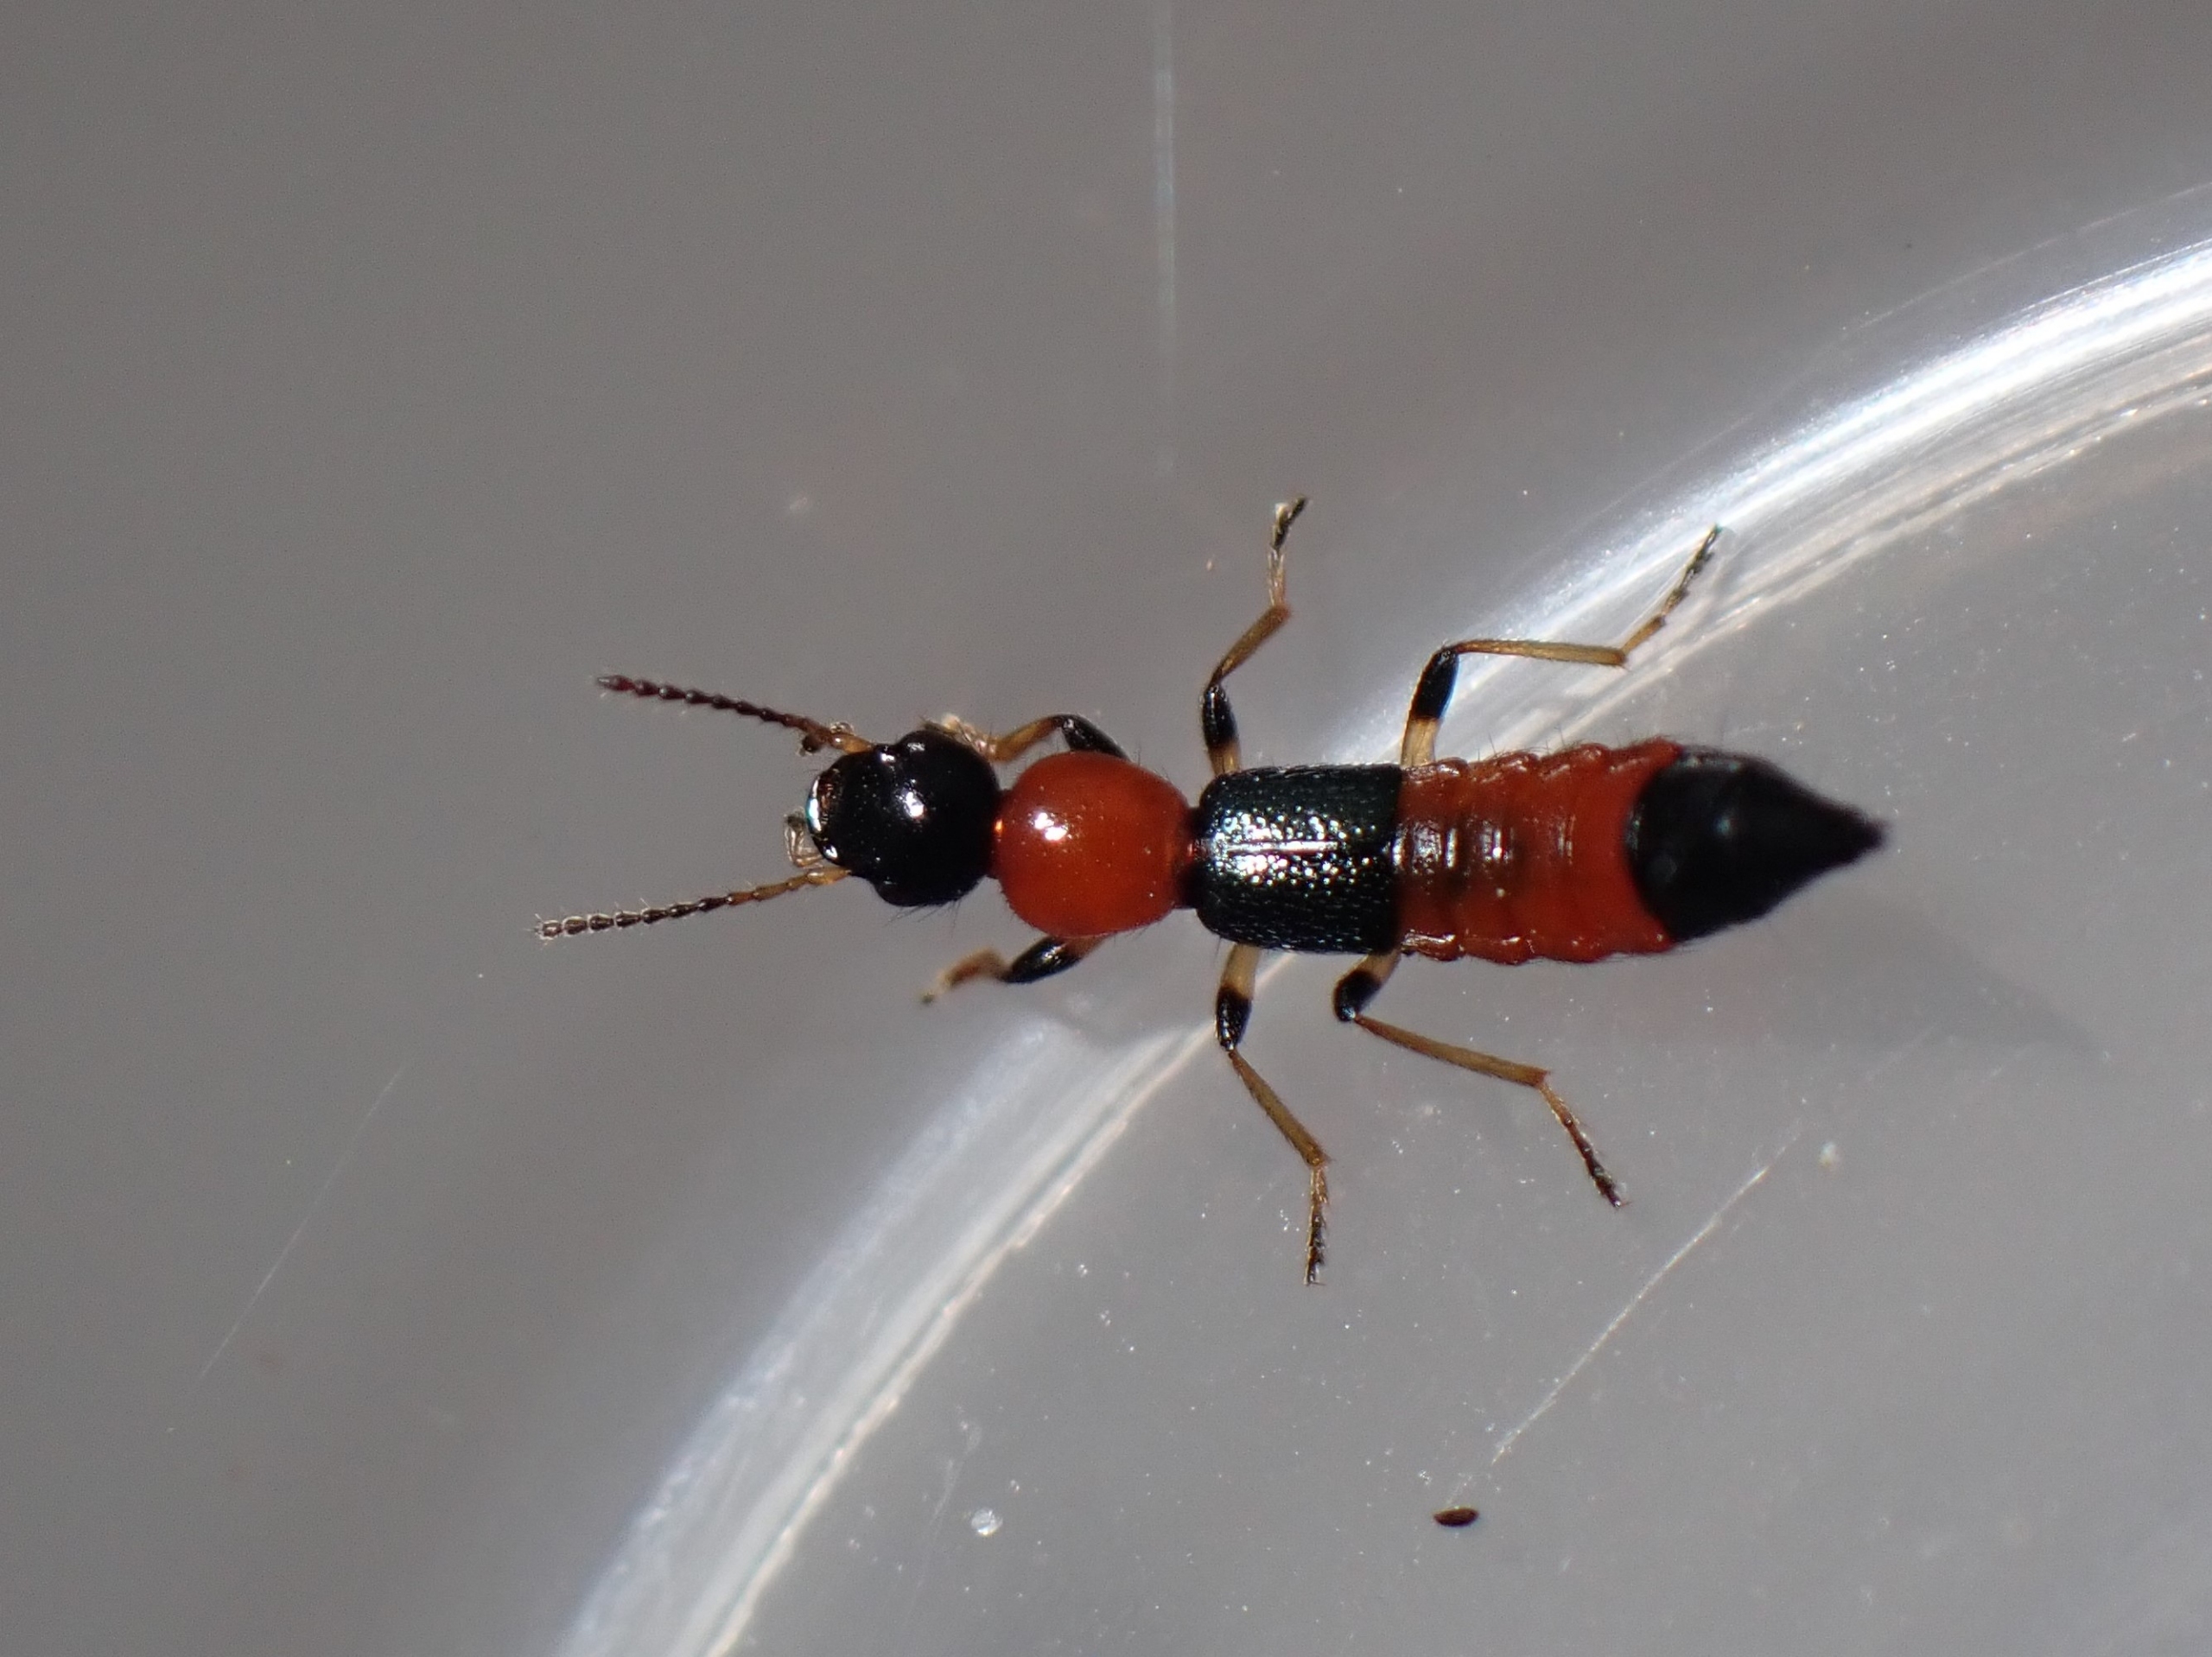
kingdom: Animalia
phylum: Arthropoda
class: Insecta
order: Coleoptera
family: Staphylinidae
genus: Paederus
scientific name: Paederus littoralis
